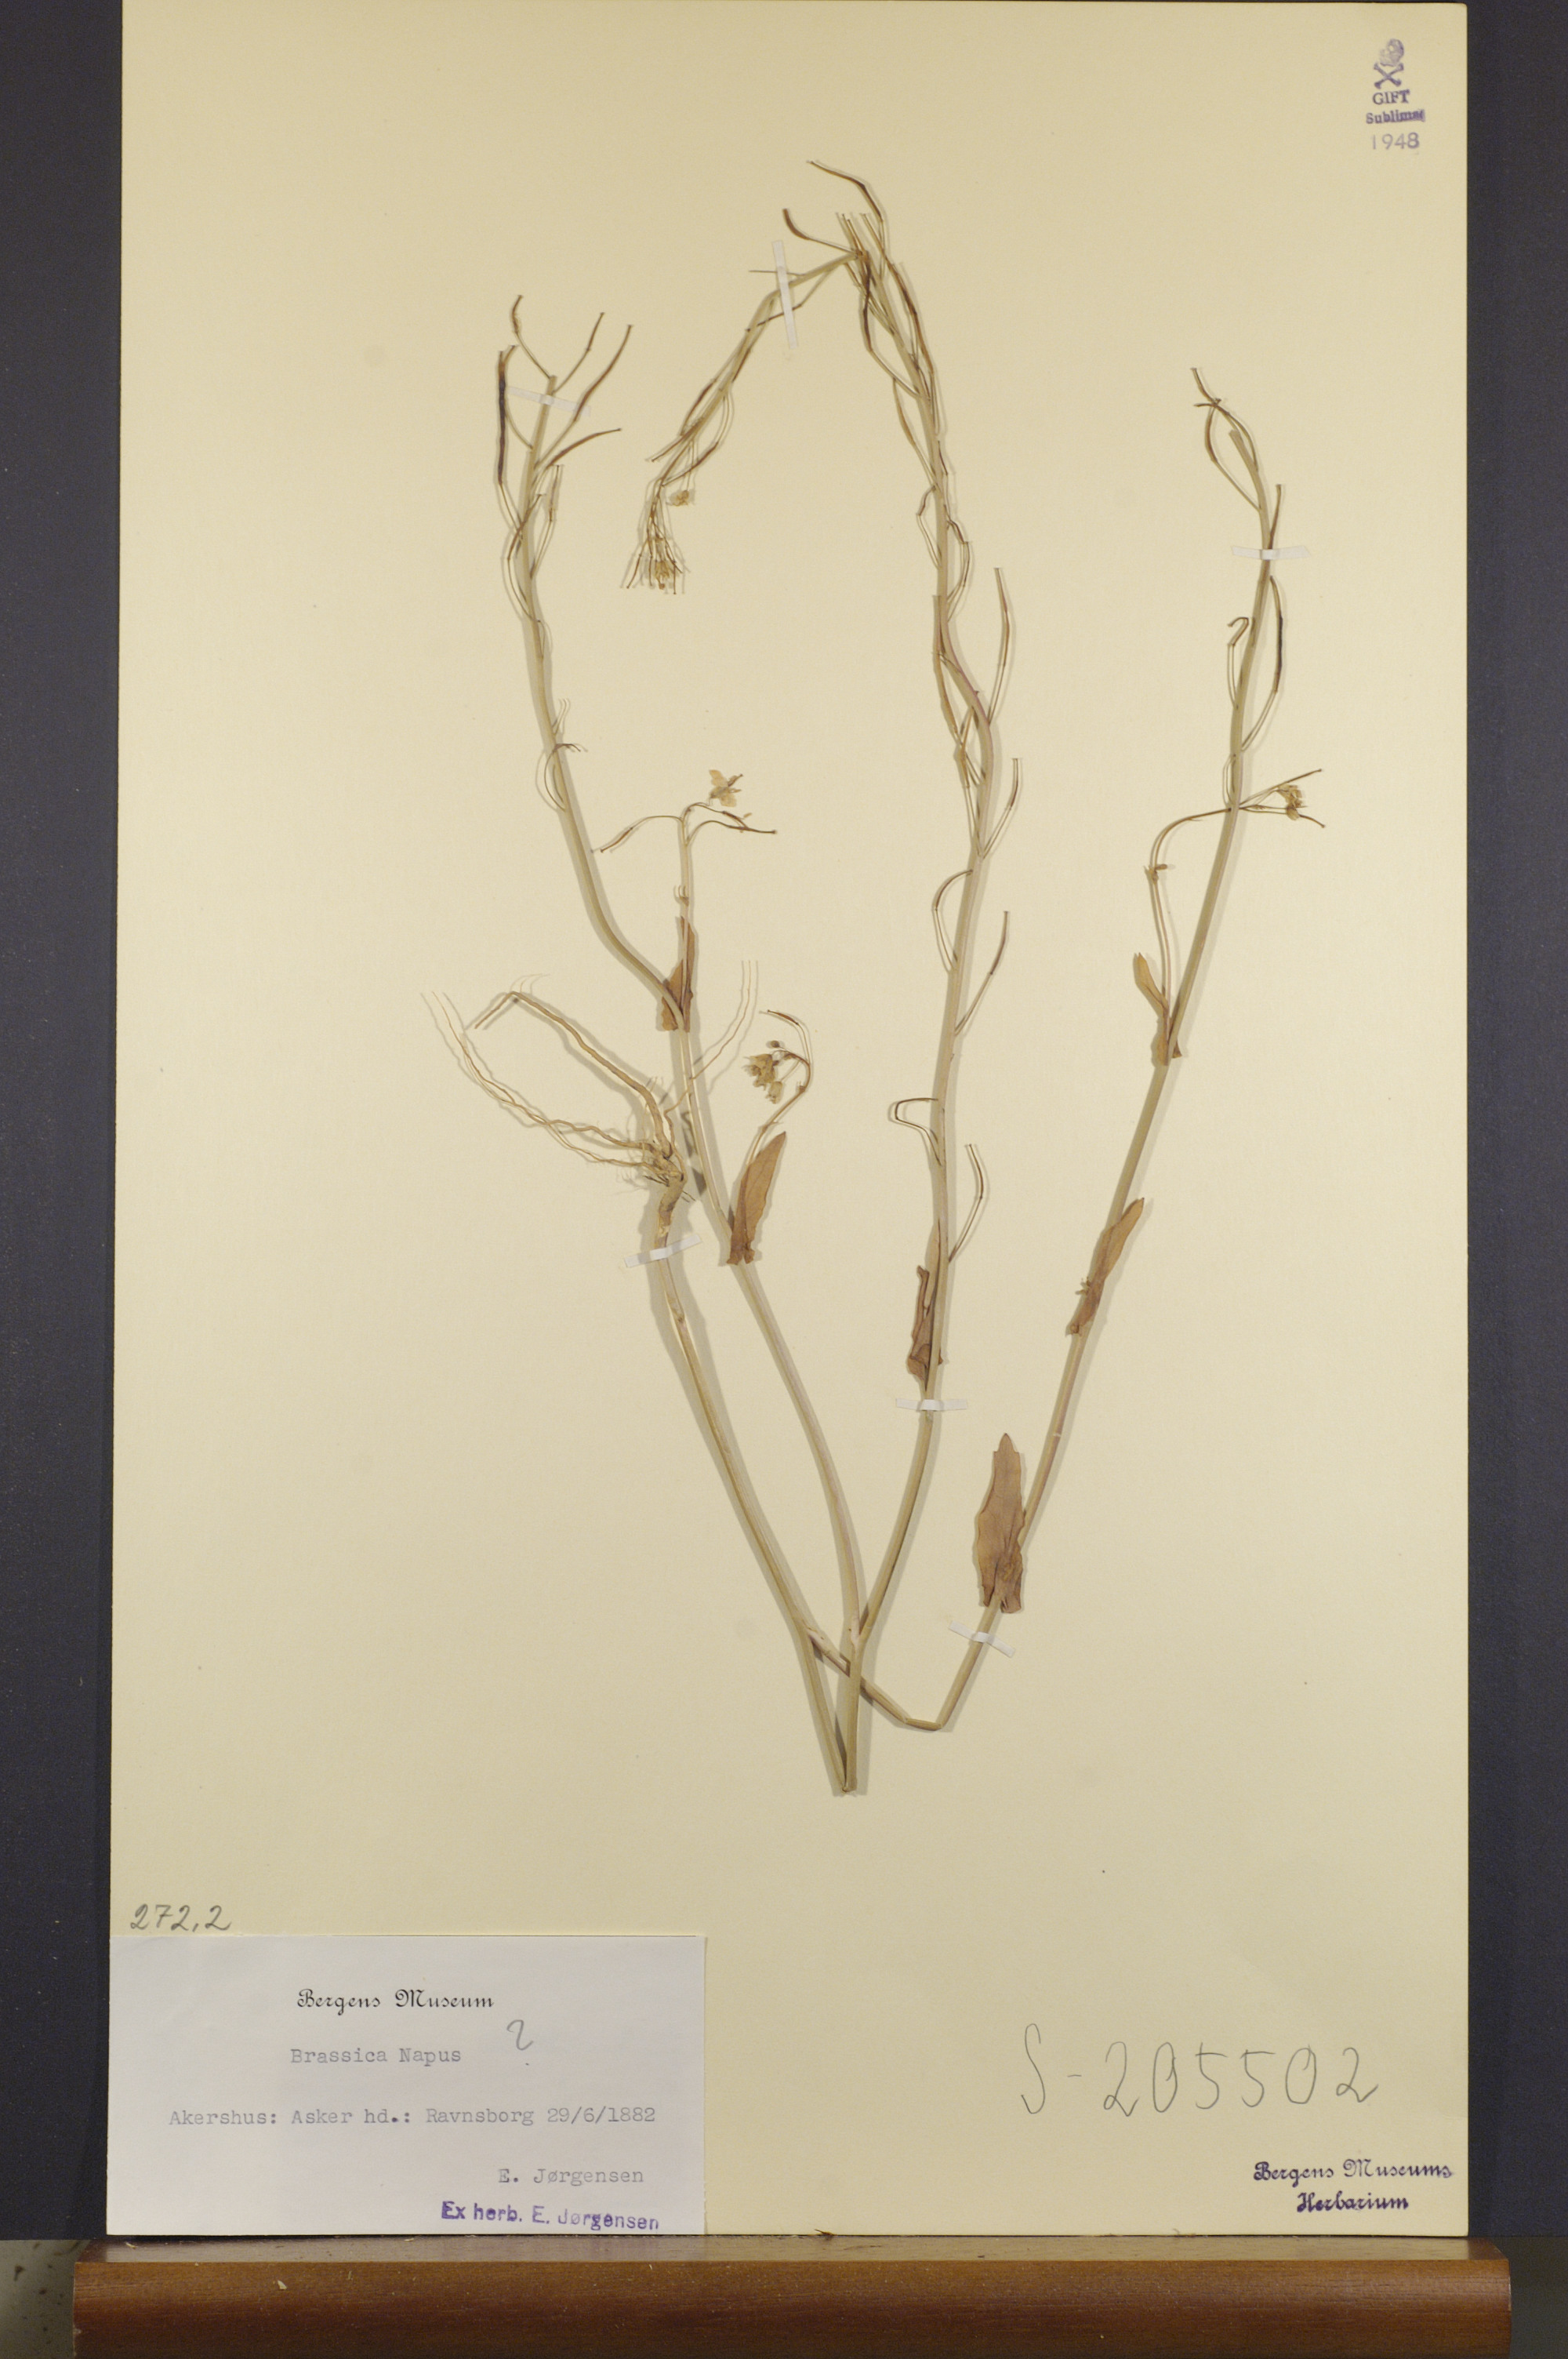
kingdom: Plantae
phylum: Tracheophyta
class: Magnoliopsida
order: Brassicales
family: Brassicaceae
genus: Brassica
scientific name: Brassica napus
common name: Rape
